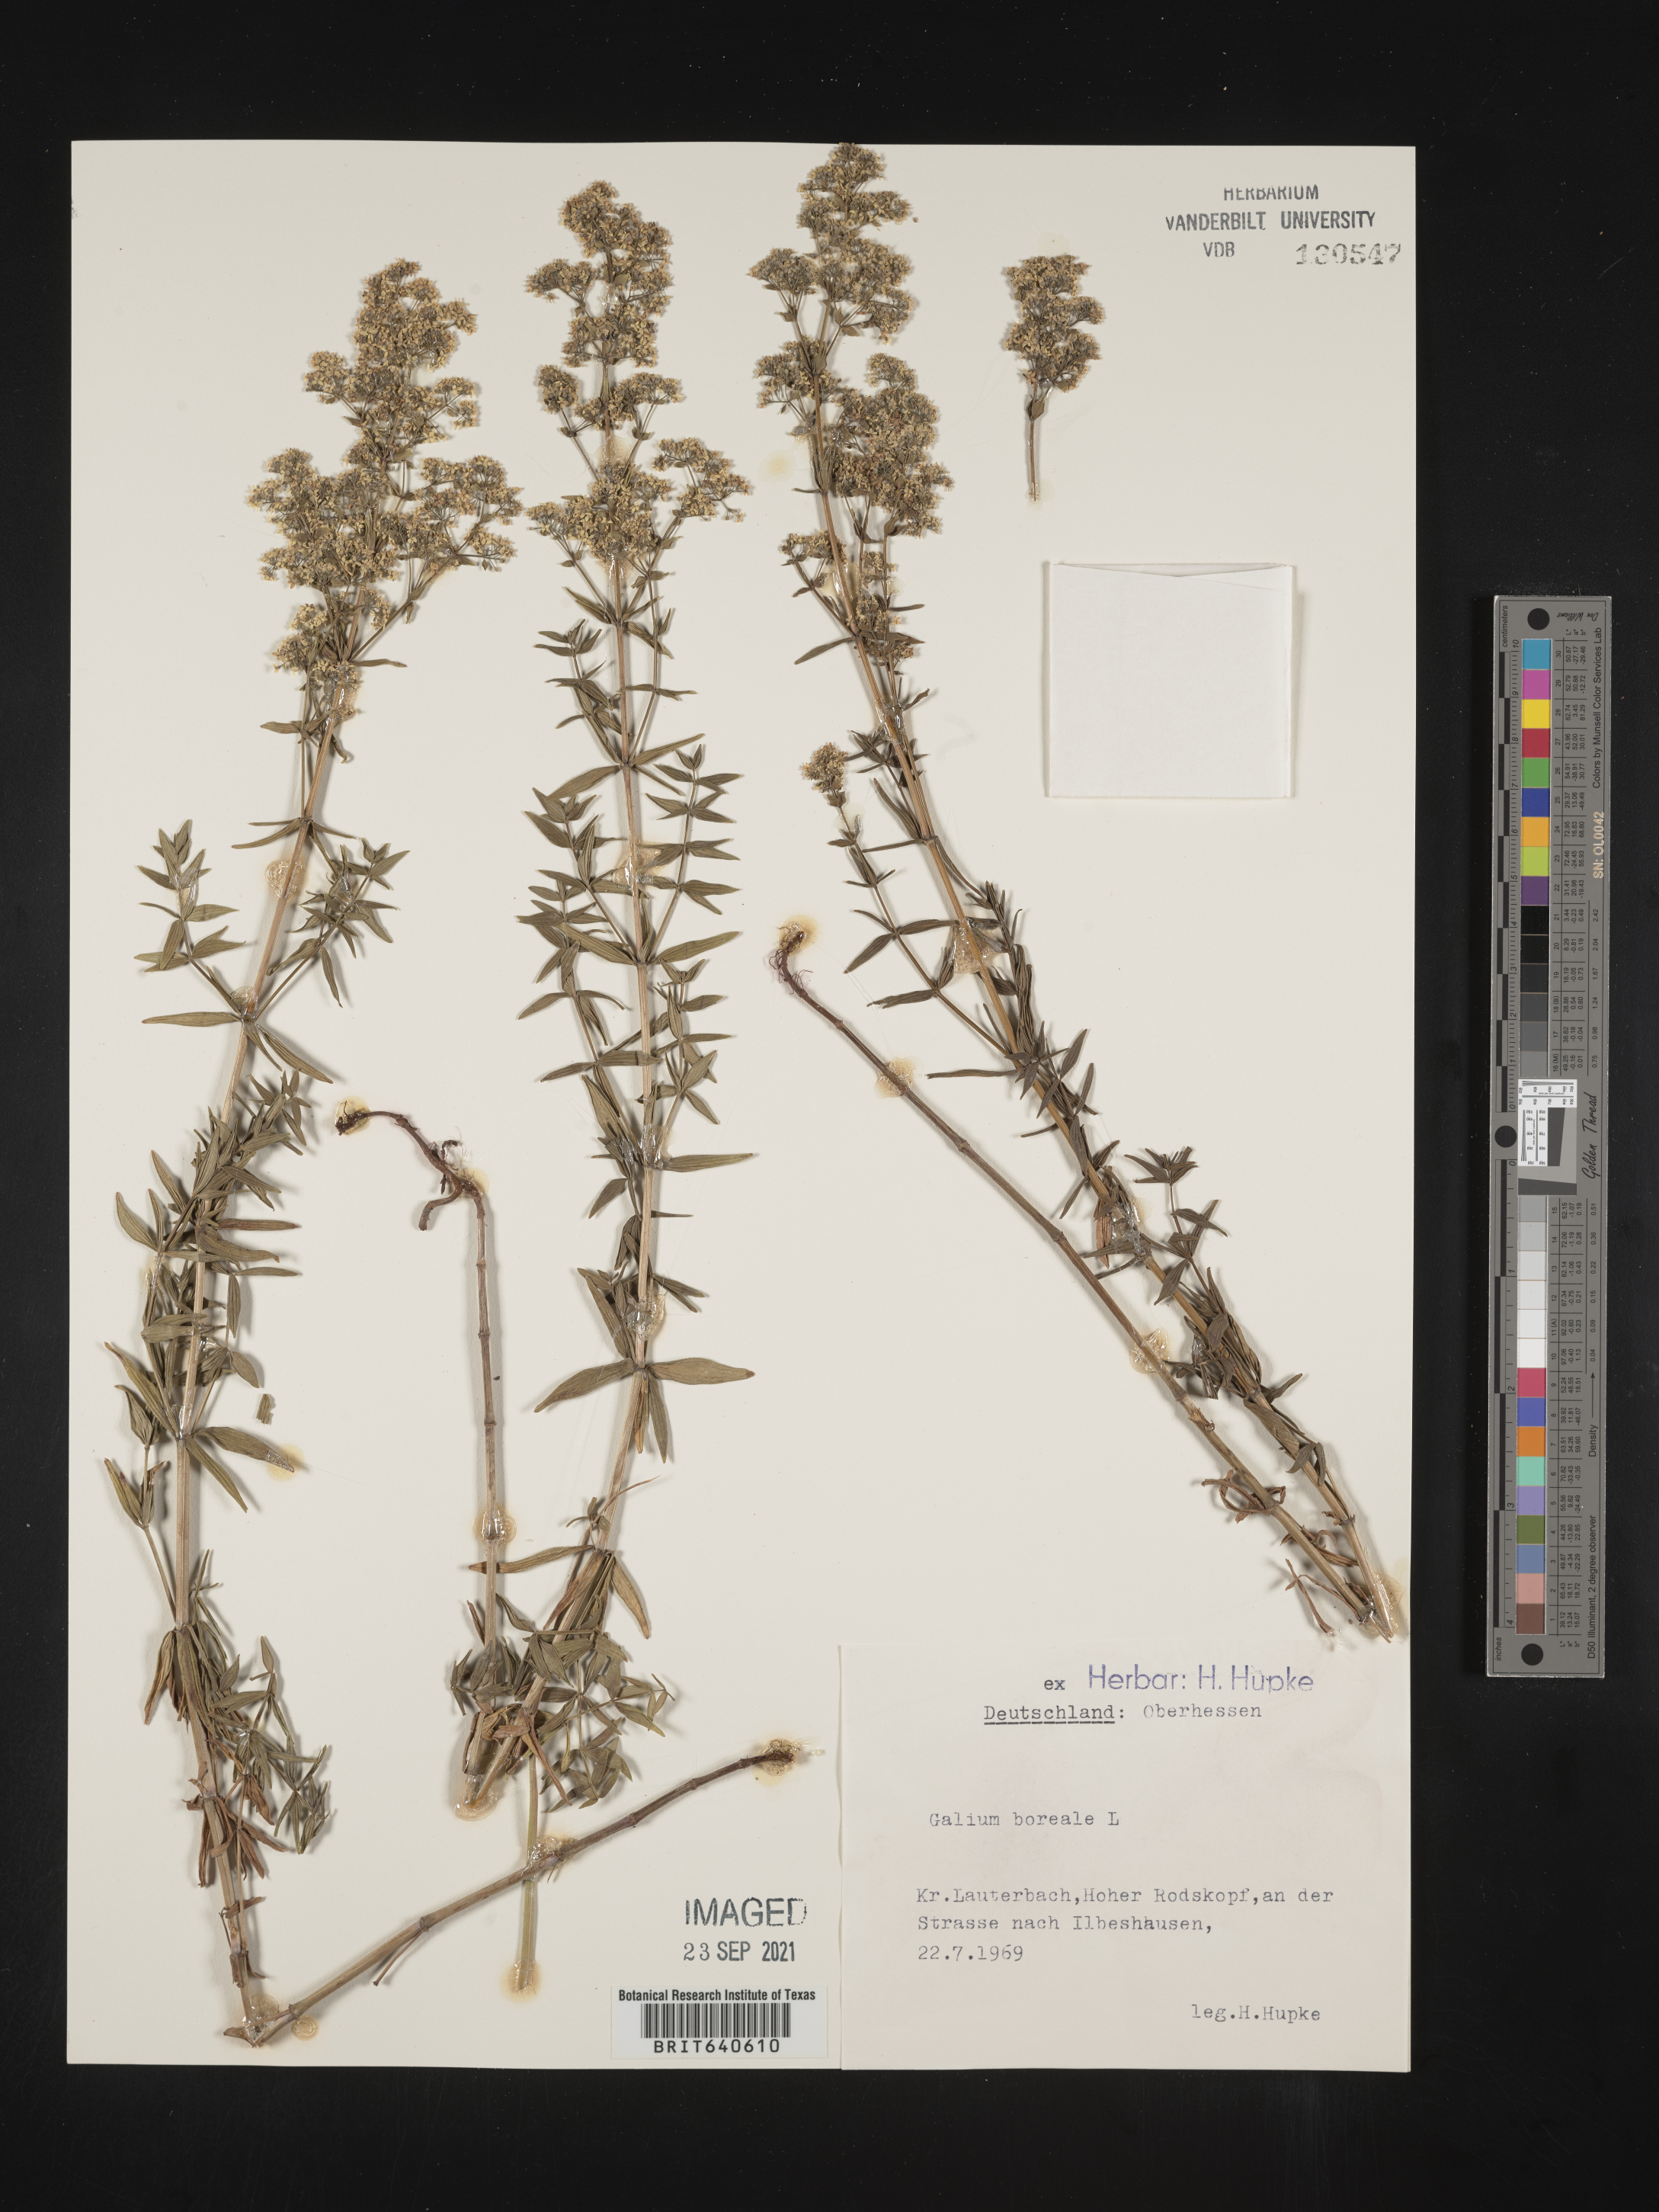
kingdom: Plantae
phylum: Tracheophyta
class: Magnoliopsida
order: Gentianales
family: Rubiaceae
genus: Galium
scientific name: Galium
